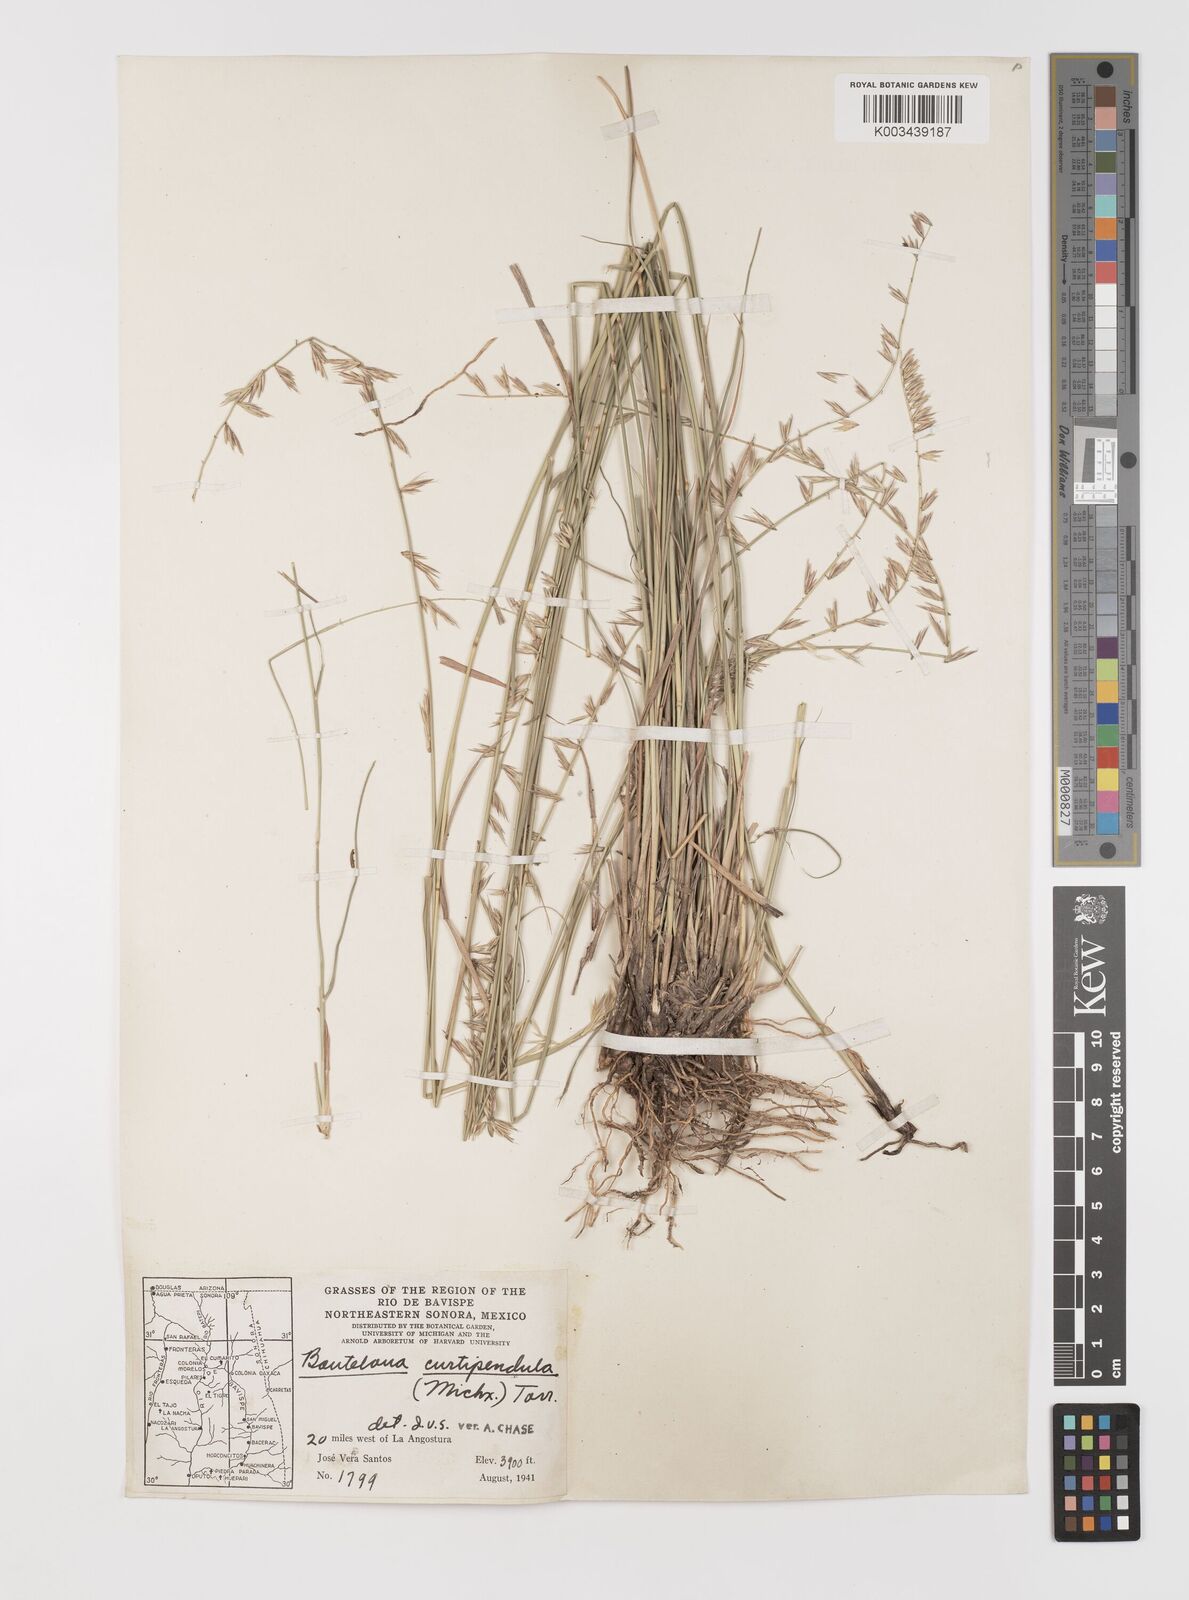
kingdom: Plantae
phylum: Tracheophyta
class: Liliopsida
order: Poales
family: Poaceae
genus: Bouteloua
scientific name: Bouteloua curtipendula
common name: Side-oats grama
